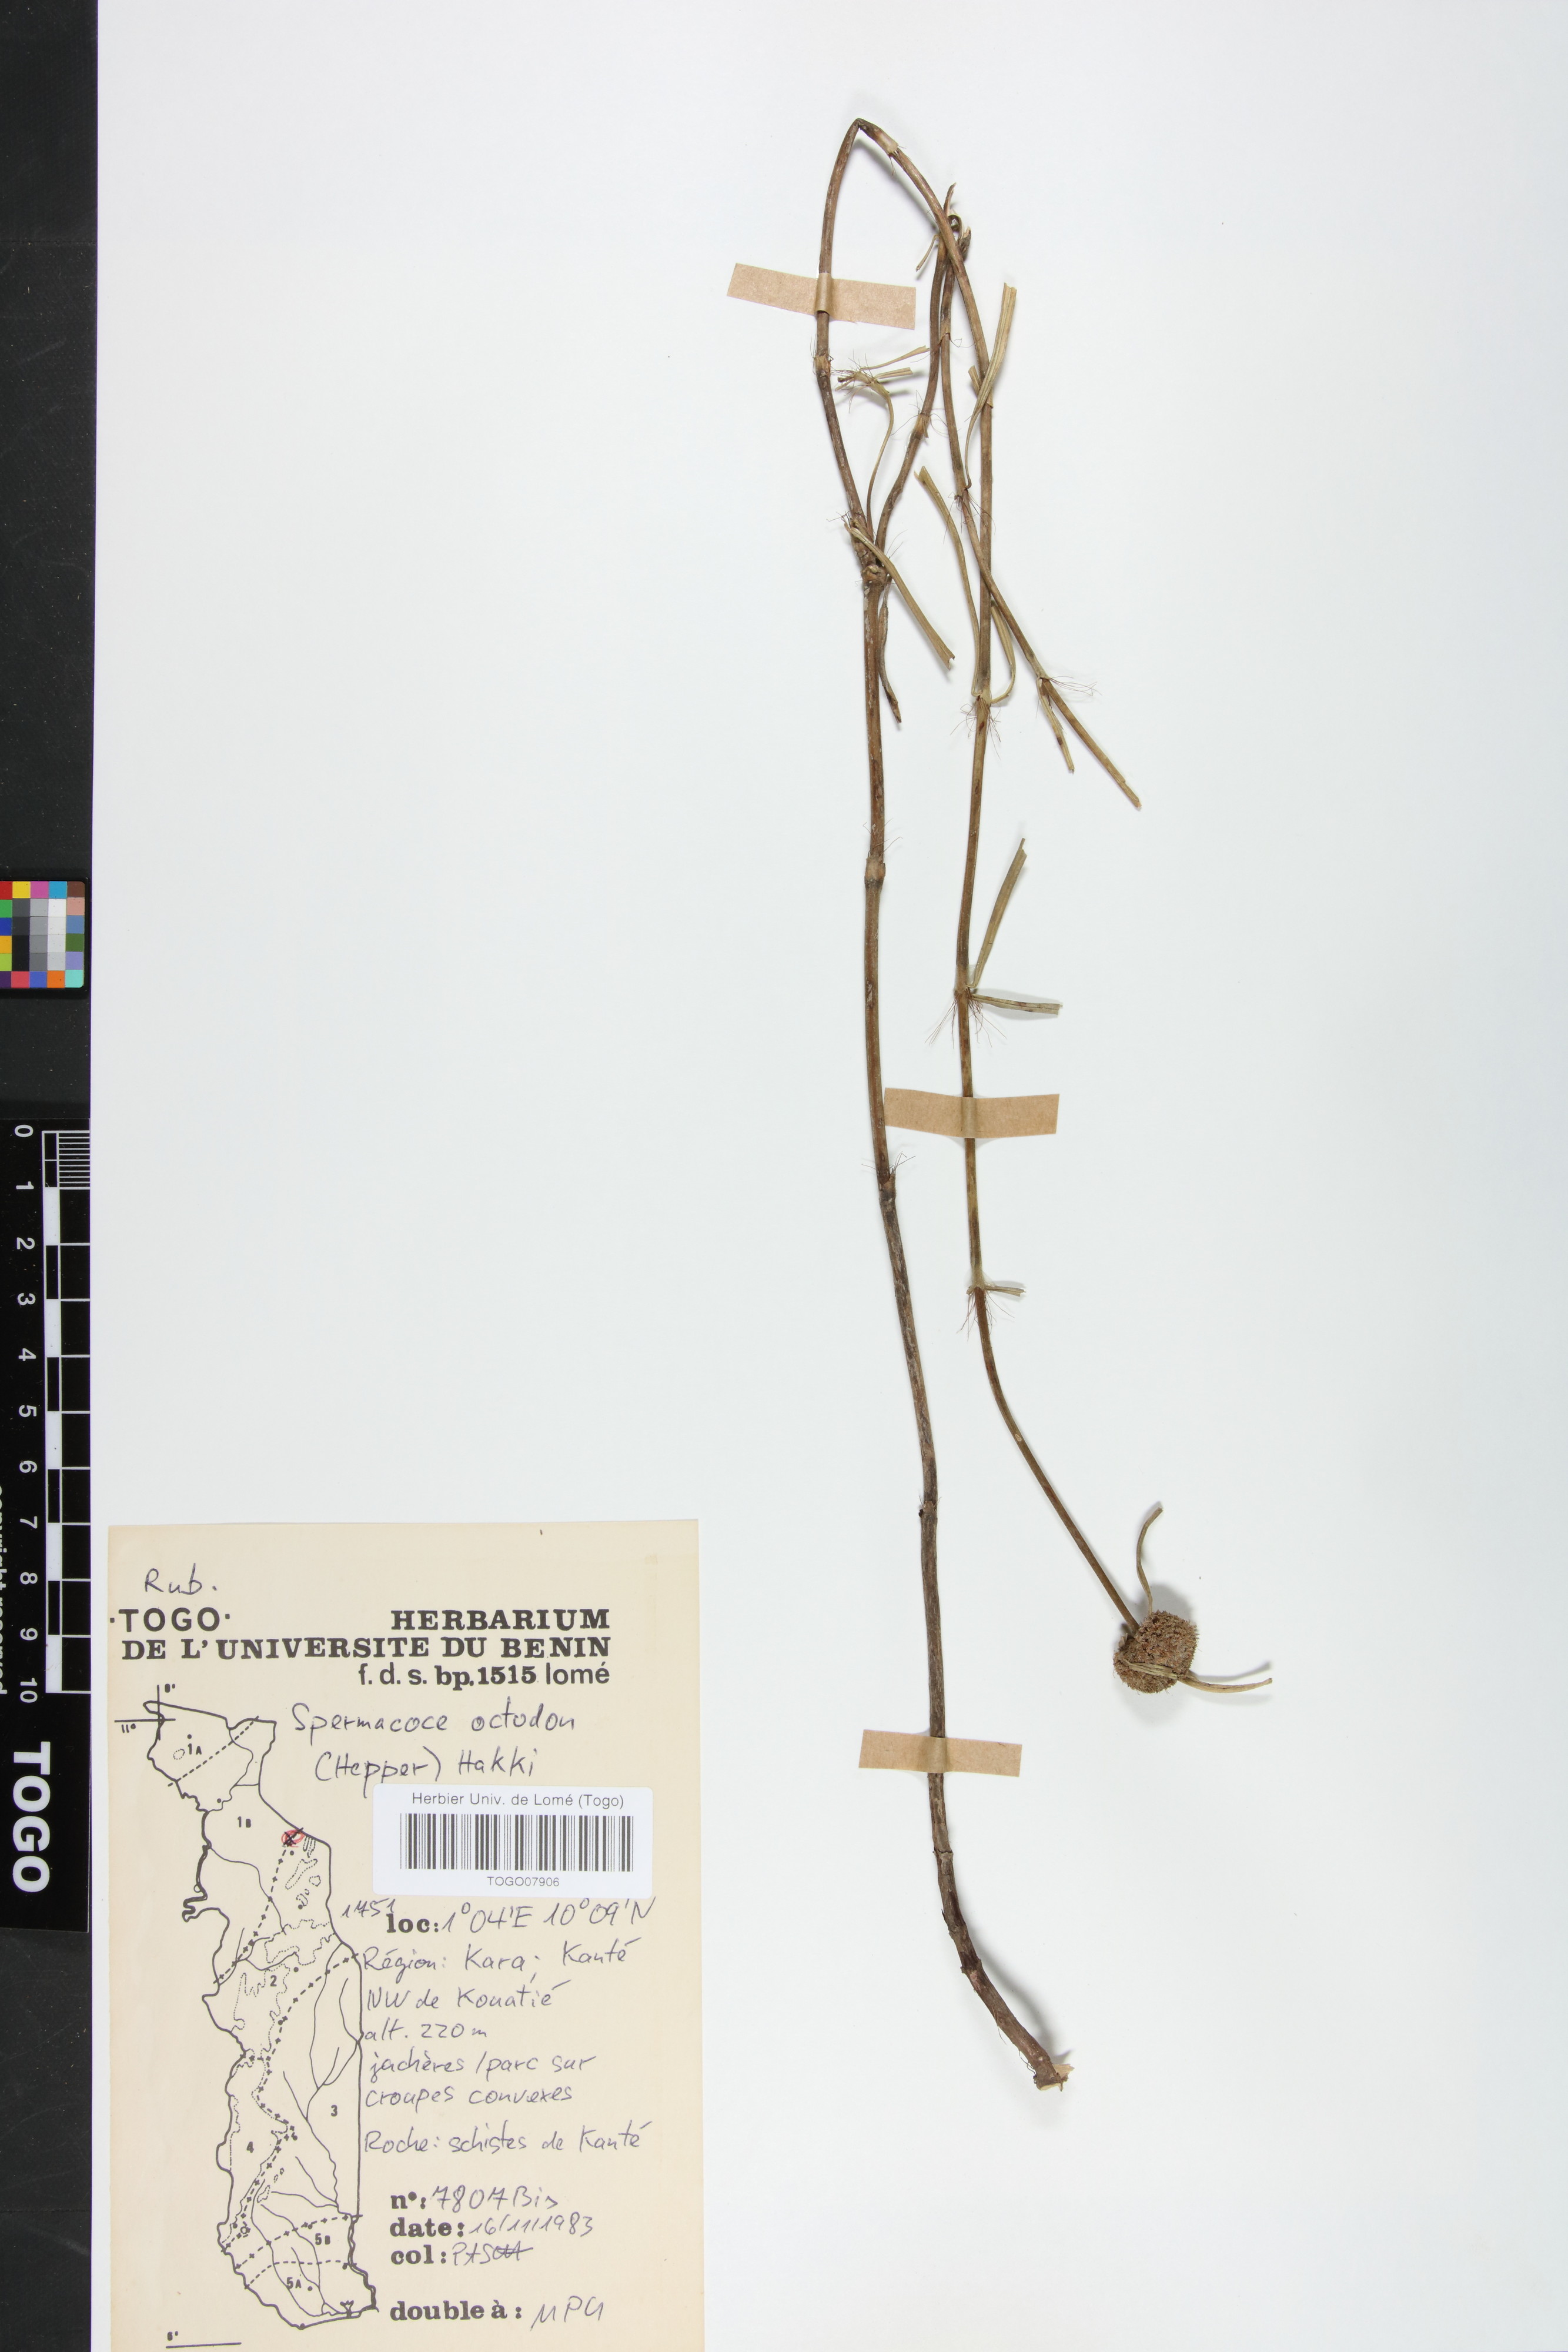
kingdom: Plantae
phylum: Tracheophyta
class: Magnoliopsida
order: Gentianales
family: Rubiaceae
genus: Spermacoce
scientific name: Spermacoce octodon
